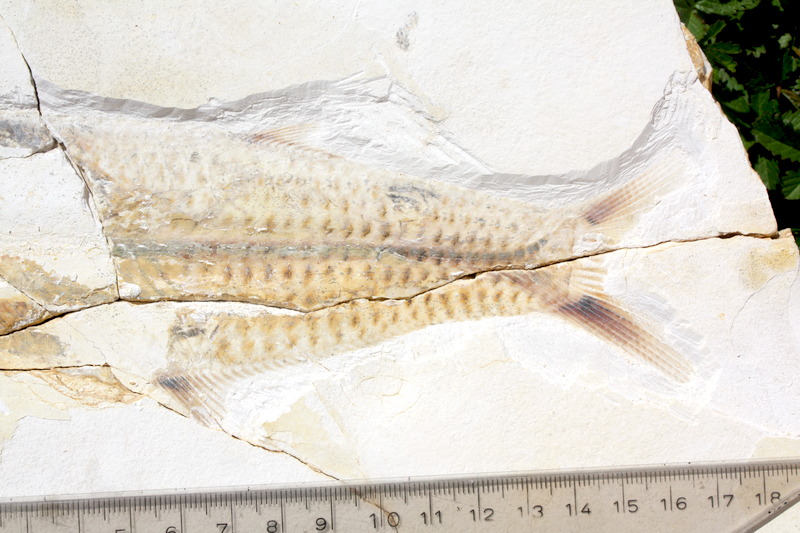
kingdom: Animalia
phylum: Chordata
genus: Thrissops
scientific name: Thrissops formosus
